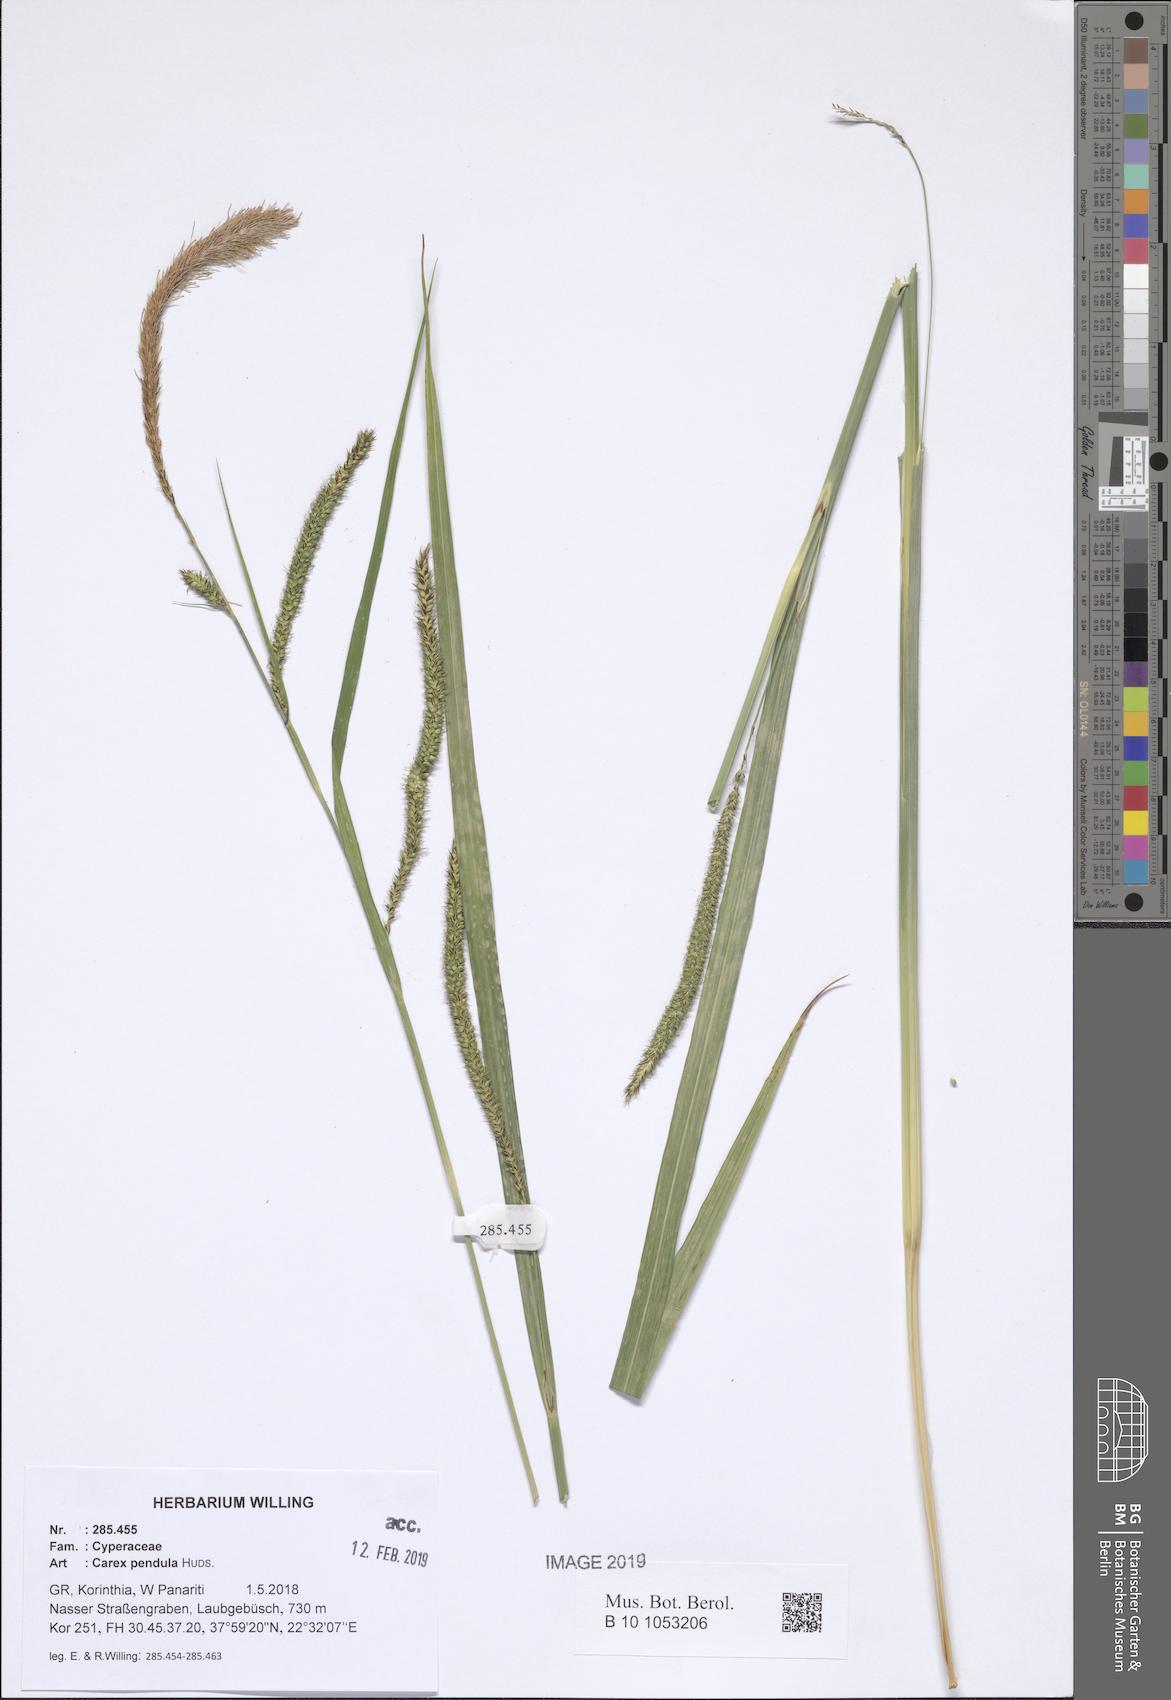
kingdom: Plantae
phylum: Tracheophyta
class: Liliopsida
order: Poales
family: Cyperaceae
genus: Carex
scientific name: Carex pendula
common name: Pendulous sedge
